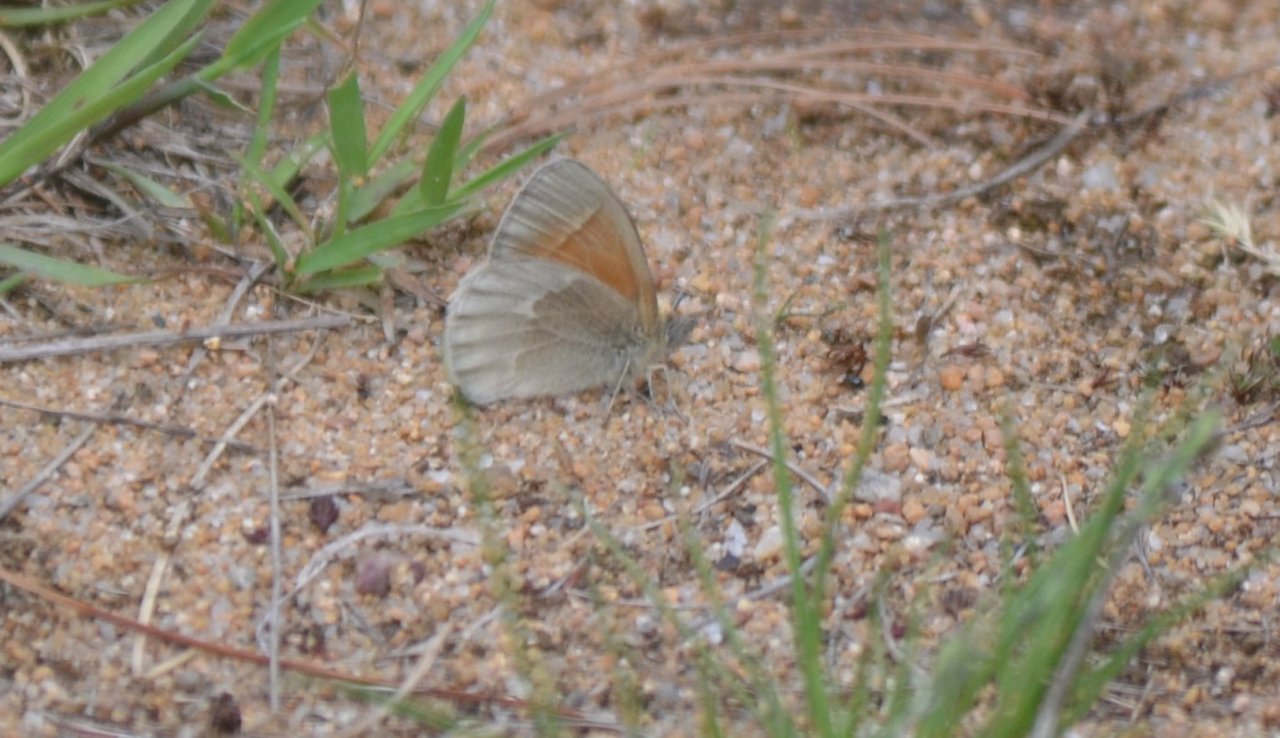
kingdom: Animalia
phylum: Arthropoda
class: Insecta
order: Lepidoptera
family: Nymphalidae
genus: Coenonympha
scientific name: Coenonympha tullia
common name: Large Heath
